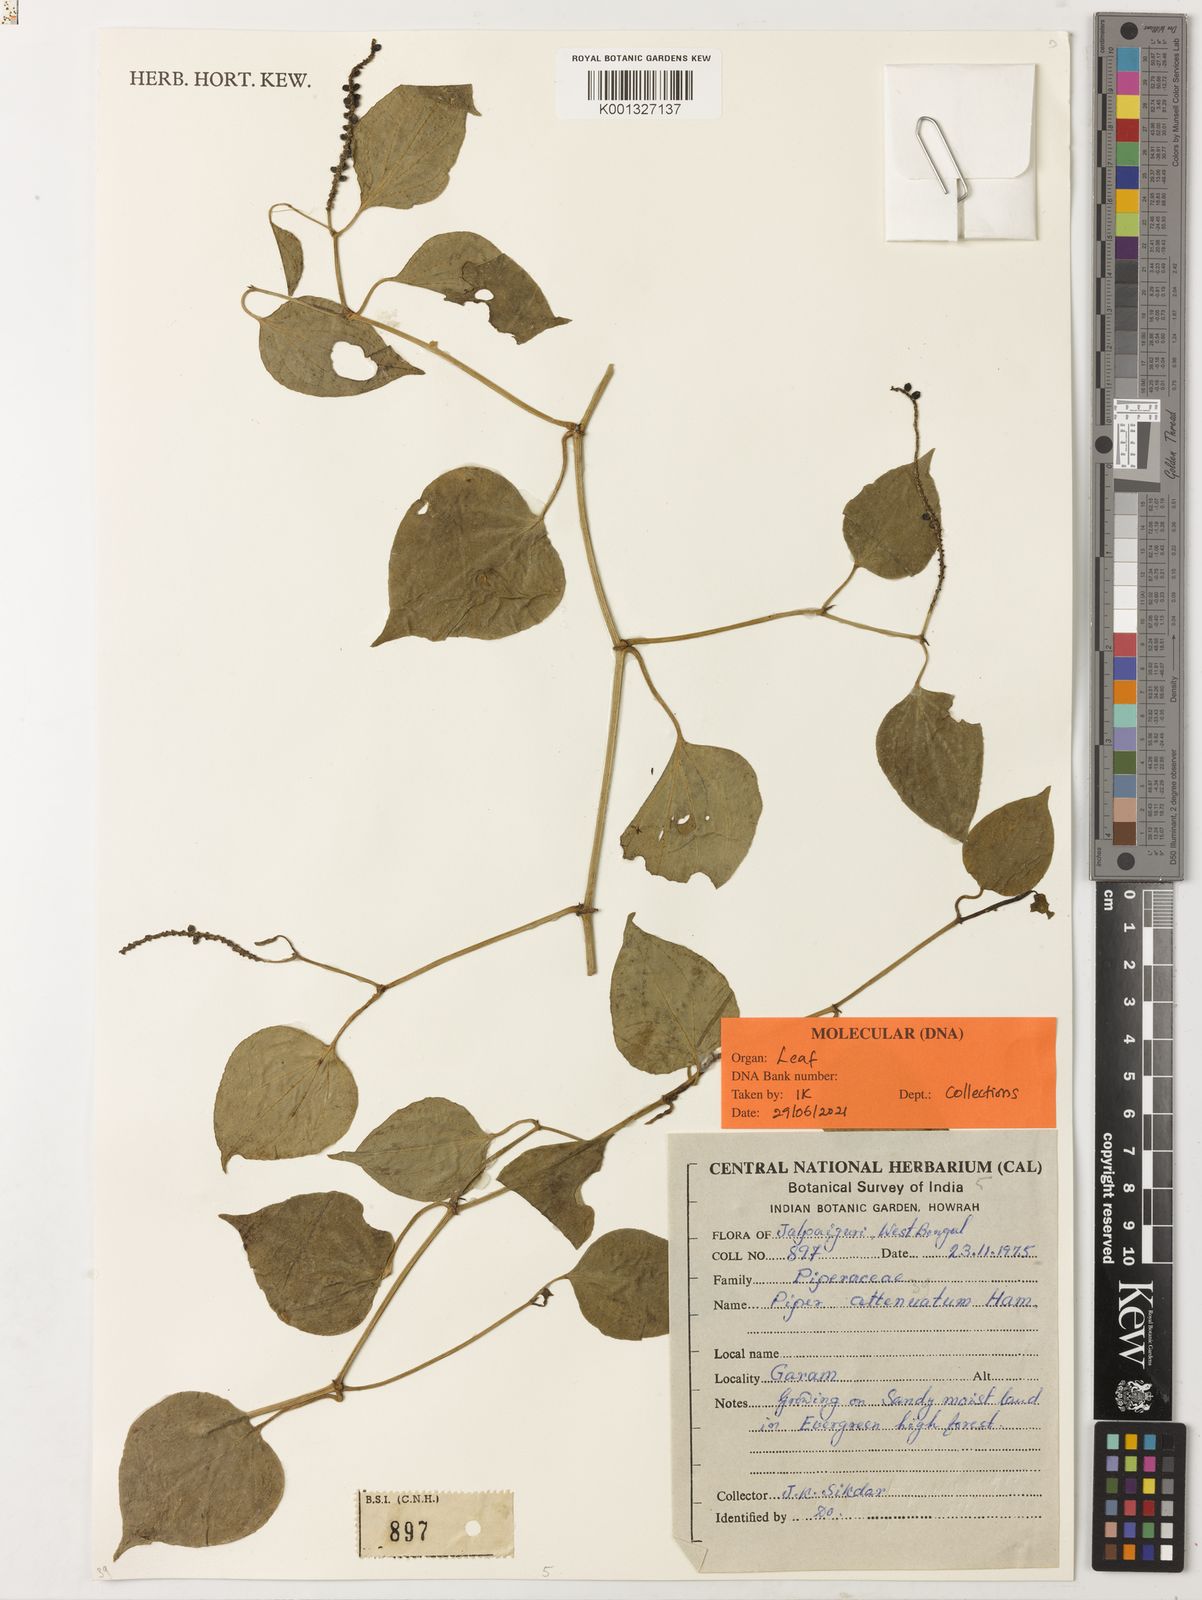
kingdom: Plantae
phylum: Tracheophyta
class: Magnoliopsida
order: Piperales
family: Piperaceae
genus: Piper
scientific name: Piper
